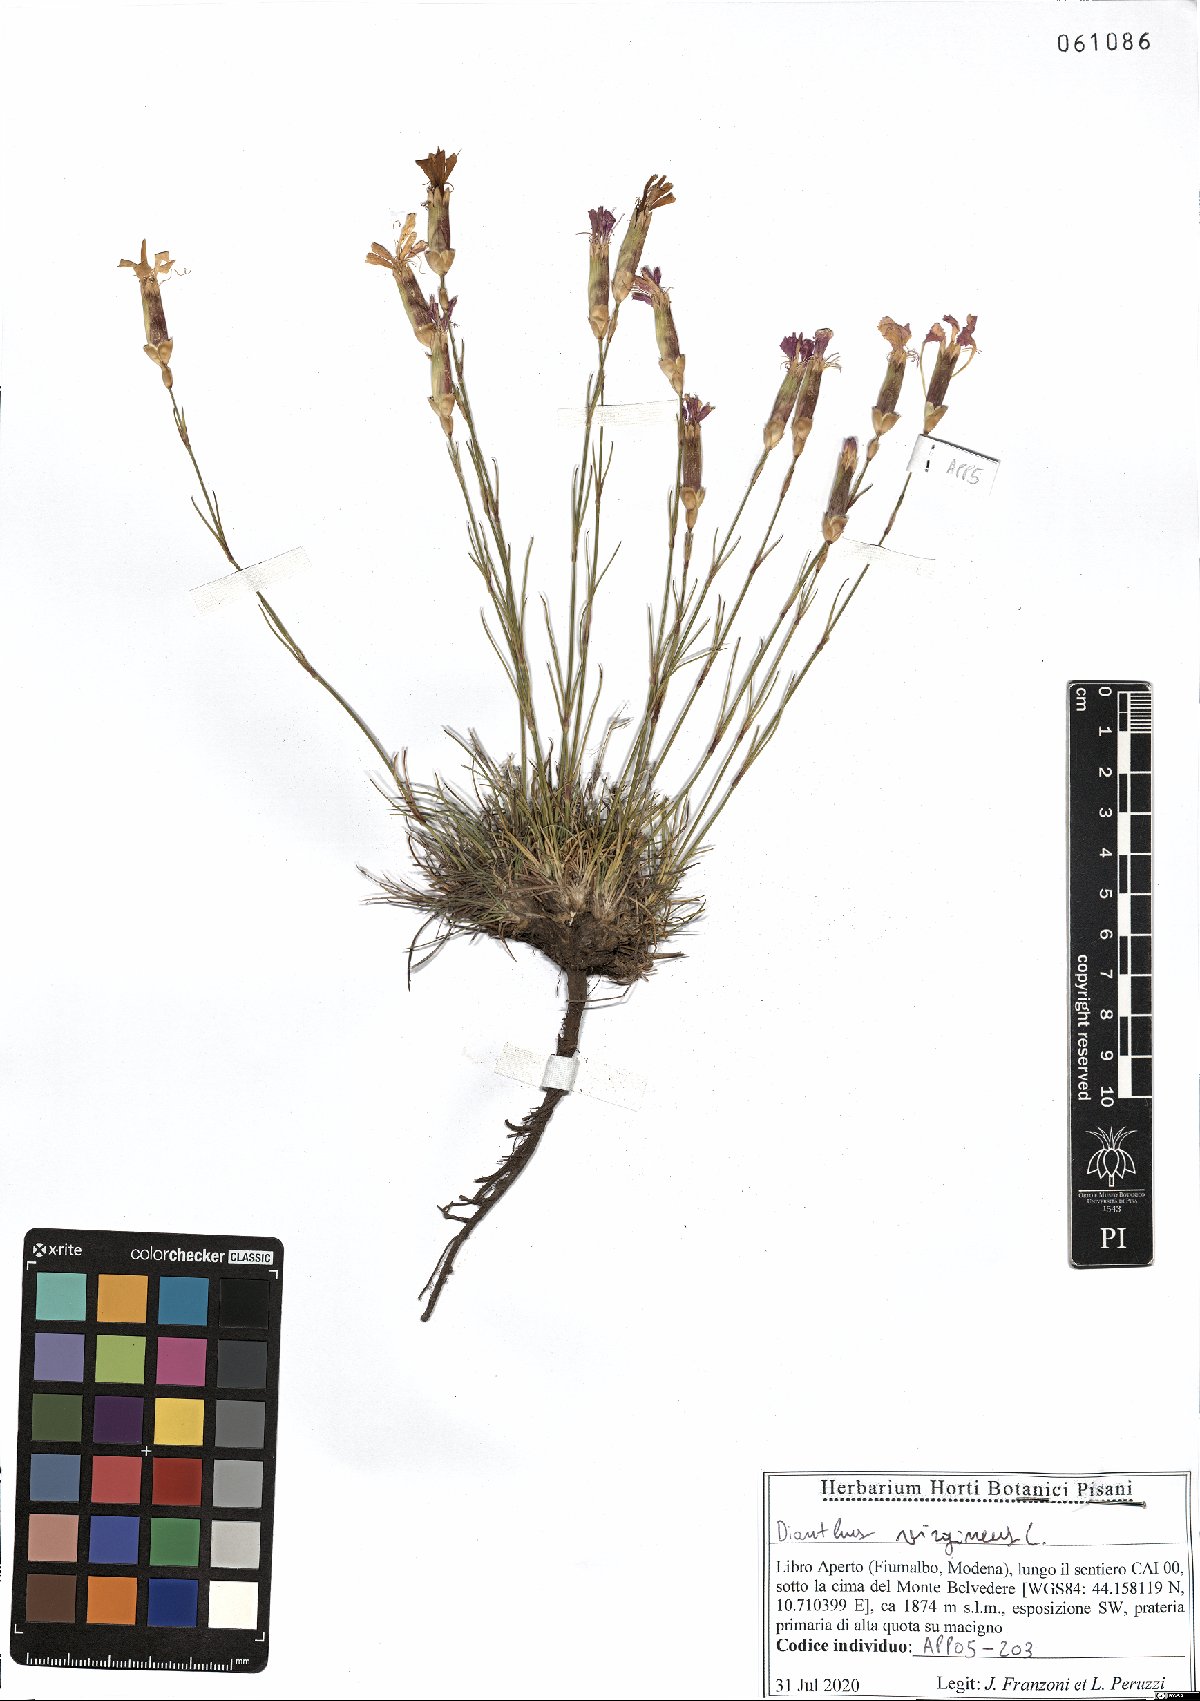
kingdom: Plantae
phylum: Tracheophyta
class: Magnoliopsida
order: Caryophyllales
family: Caryophyllaceae
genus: Dianthus
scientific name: Dianthus virgineus
